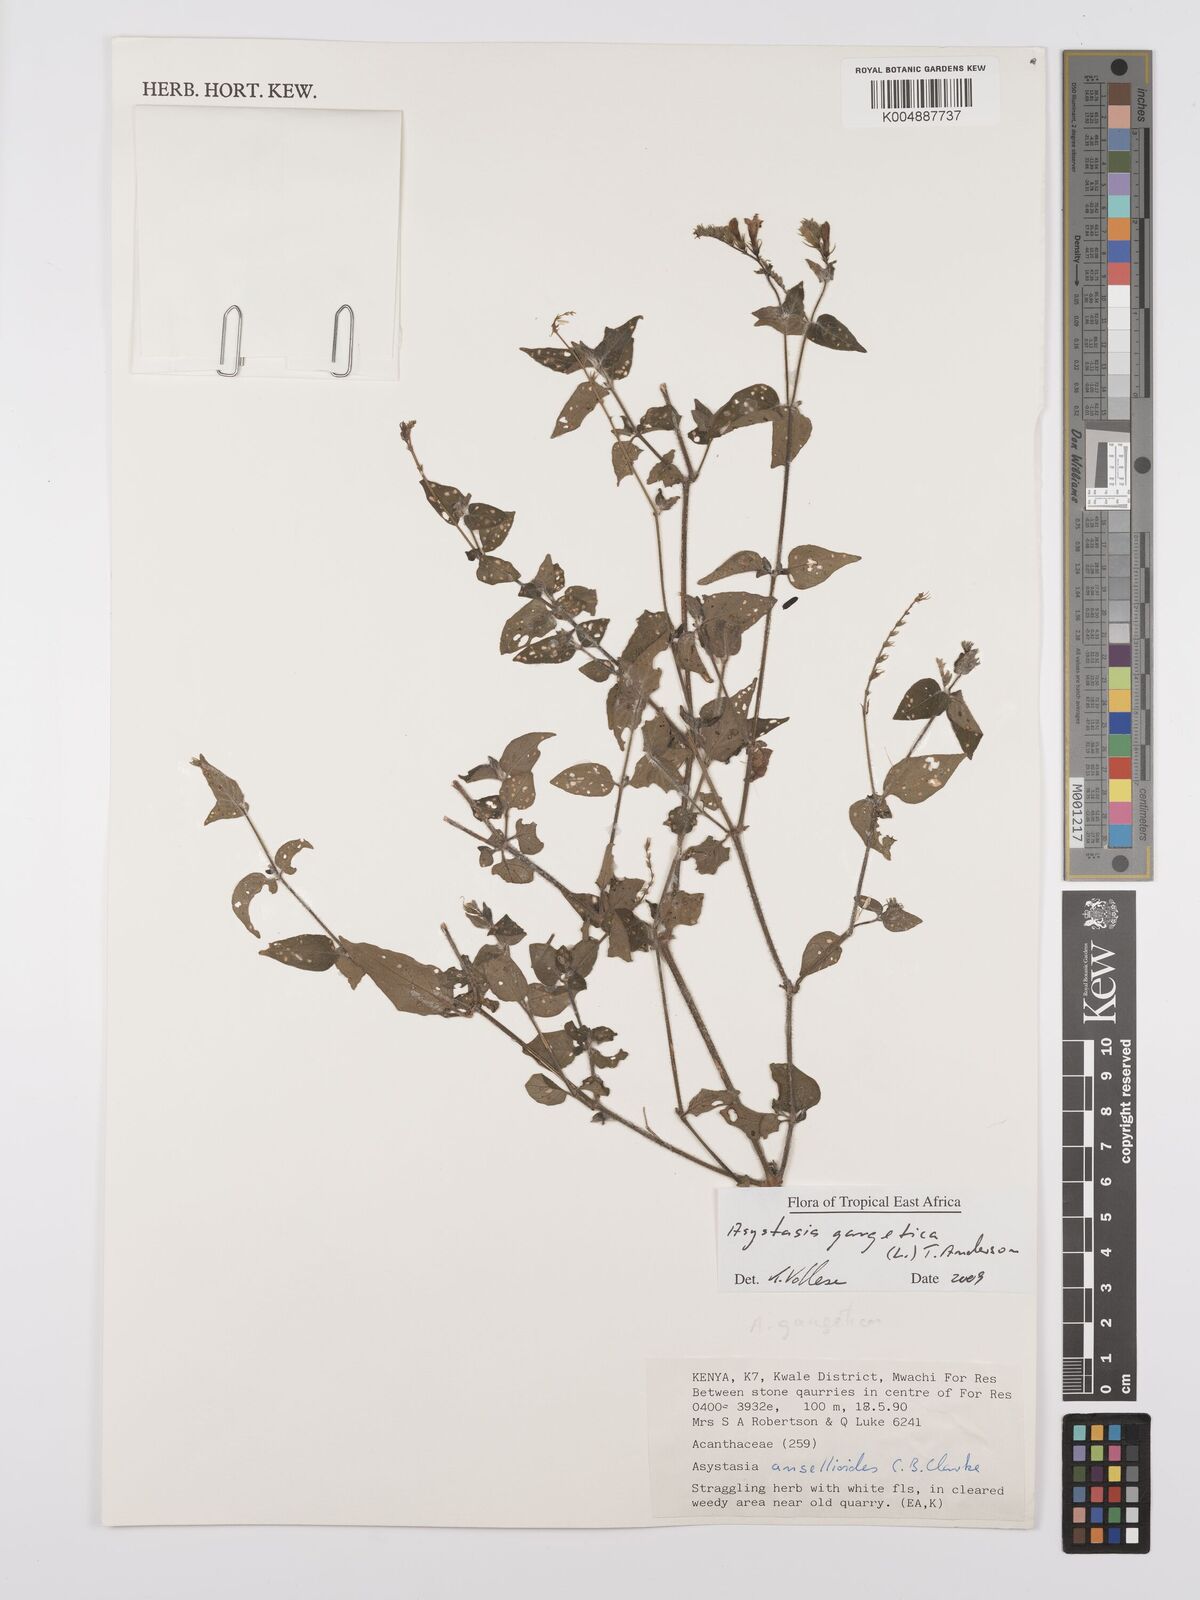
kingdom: Plantae
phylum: Tracheophyta
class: Magnoliopsida
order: Lamiales
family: Acanthaceae
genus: Asystasia
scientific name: Asystasia gangetica
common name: Chinese violet
